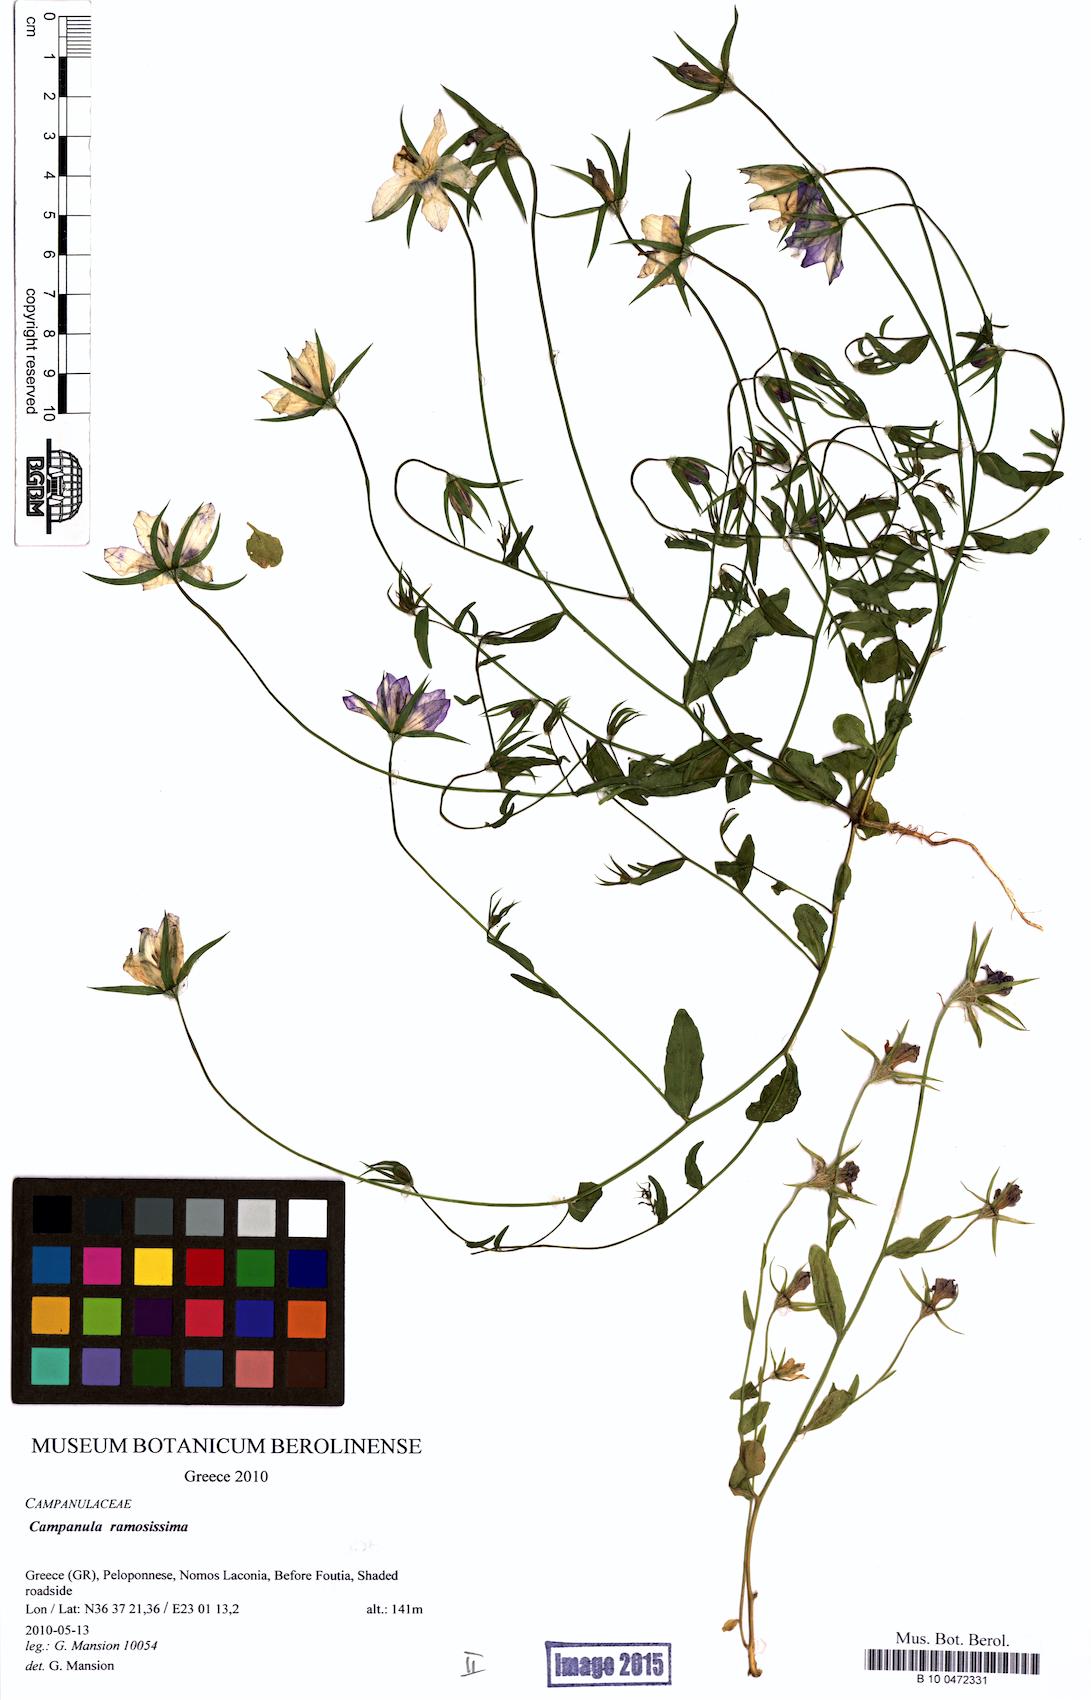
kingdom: Plantae
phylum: Tracheophyta
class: Magnoliopsida
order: Asterales
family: Campanulaceae
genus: Campanula
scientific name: Campanula ramosissima
